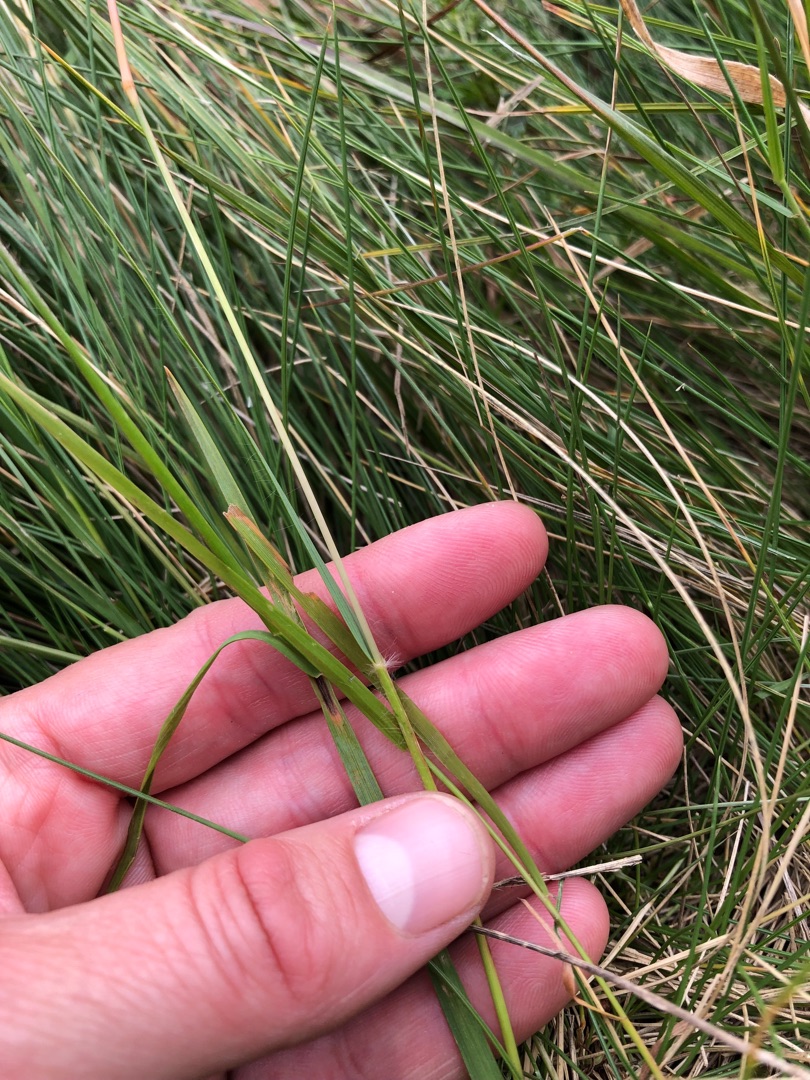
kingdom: Plantae
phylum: Tracheophyta
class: Liliopsida
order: Poales
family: Poaceae
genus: Danthonia
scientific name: Danthonia decumbens
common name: Tandbælg
